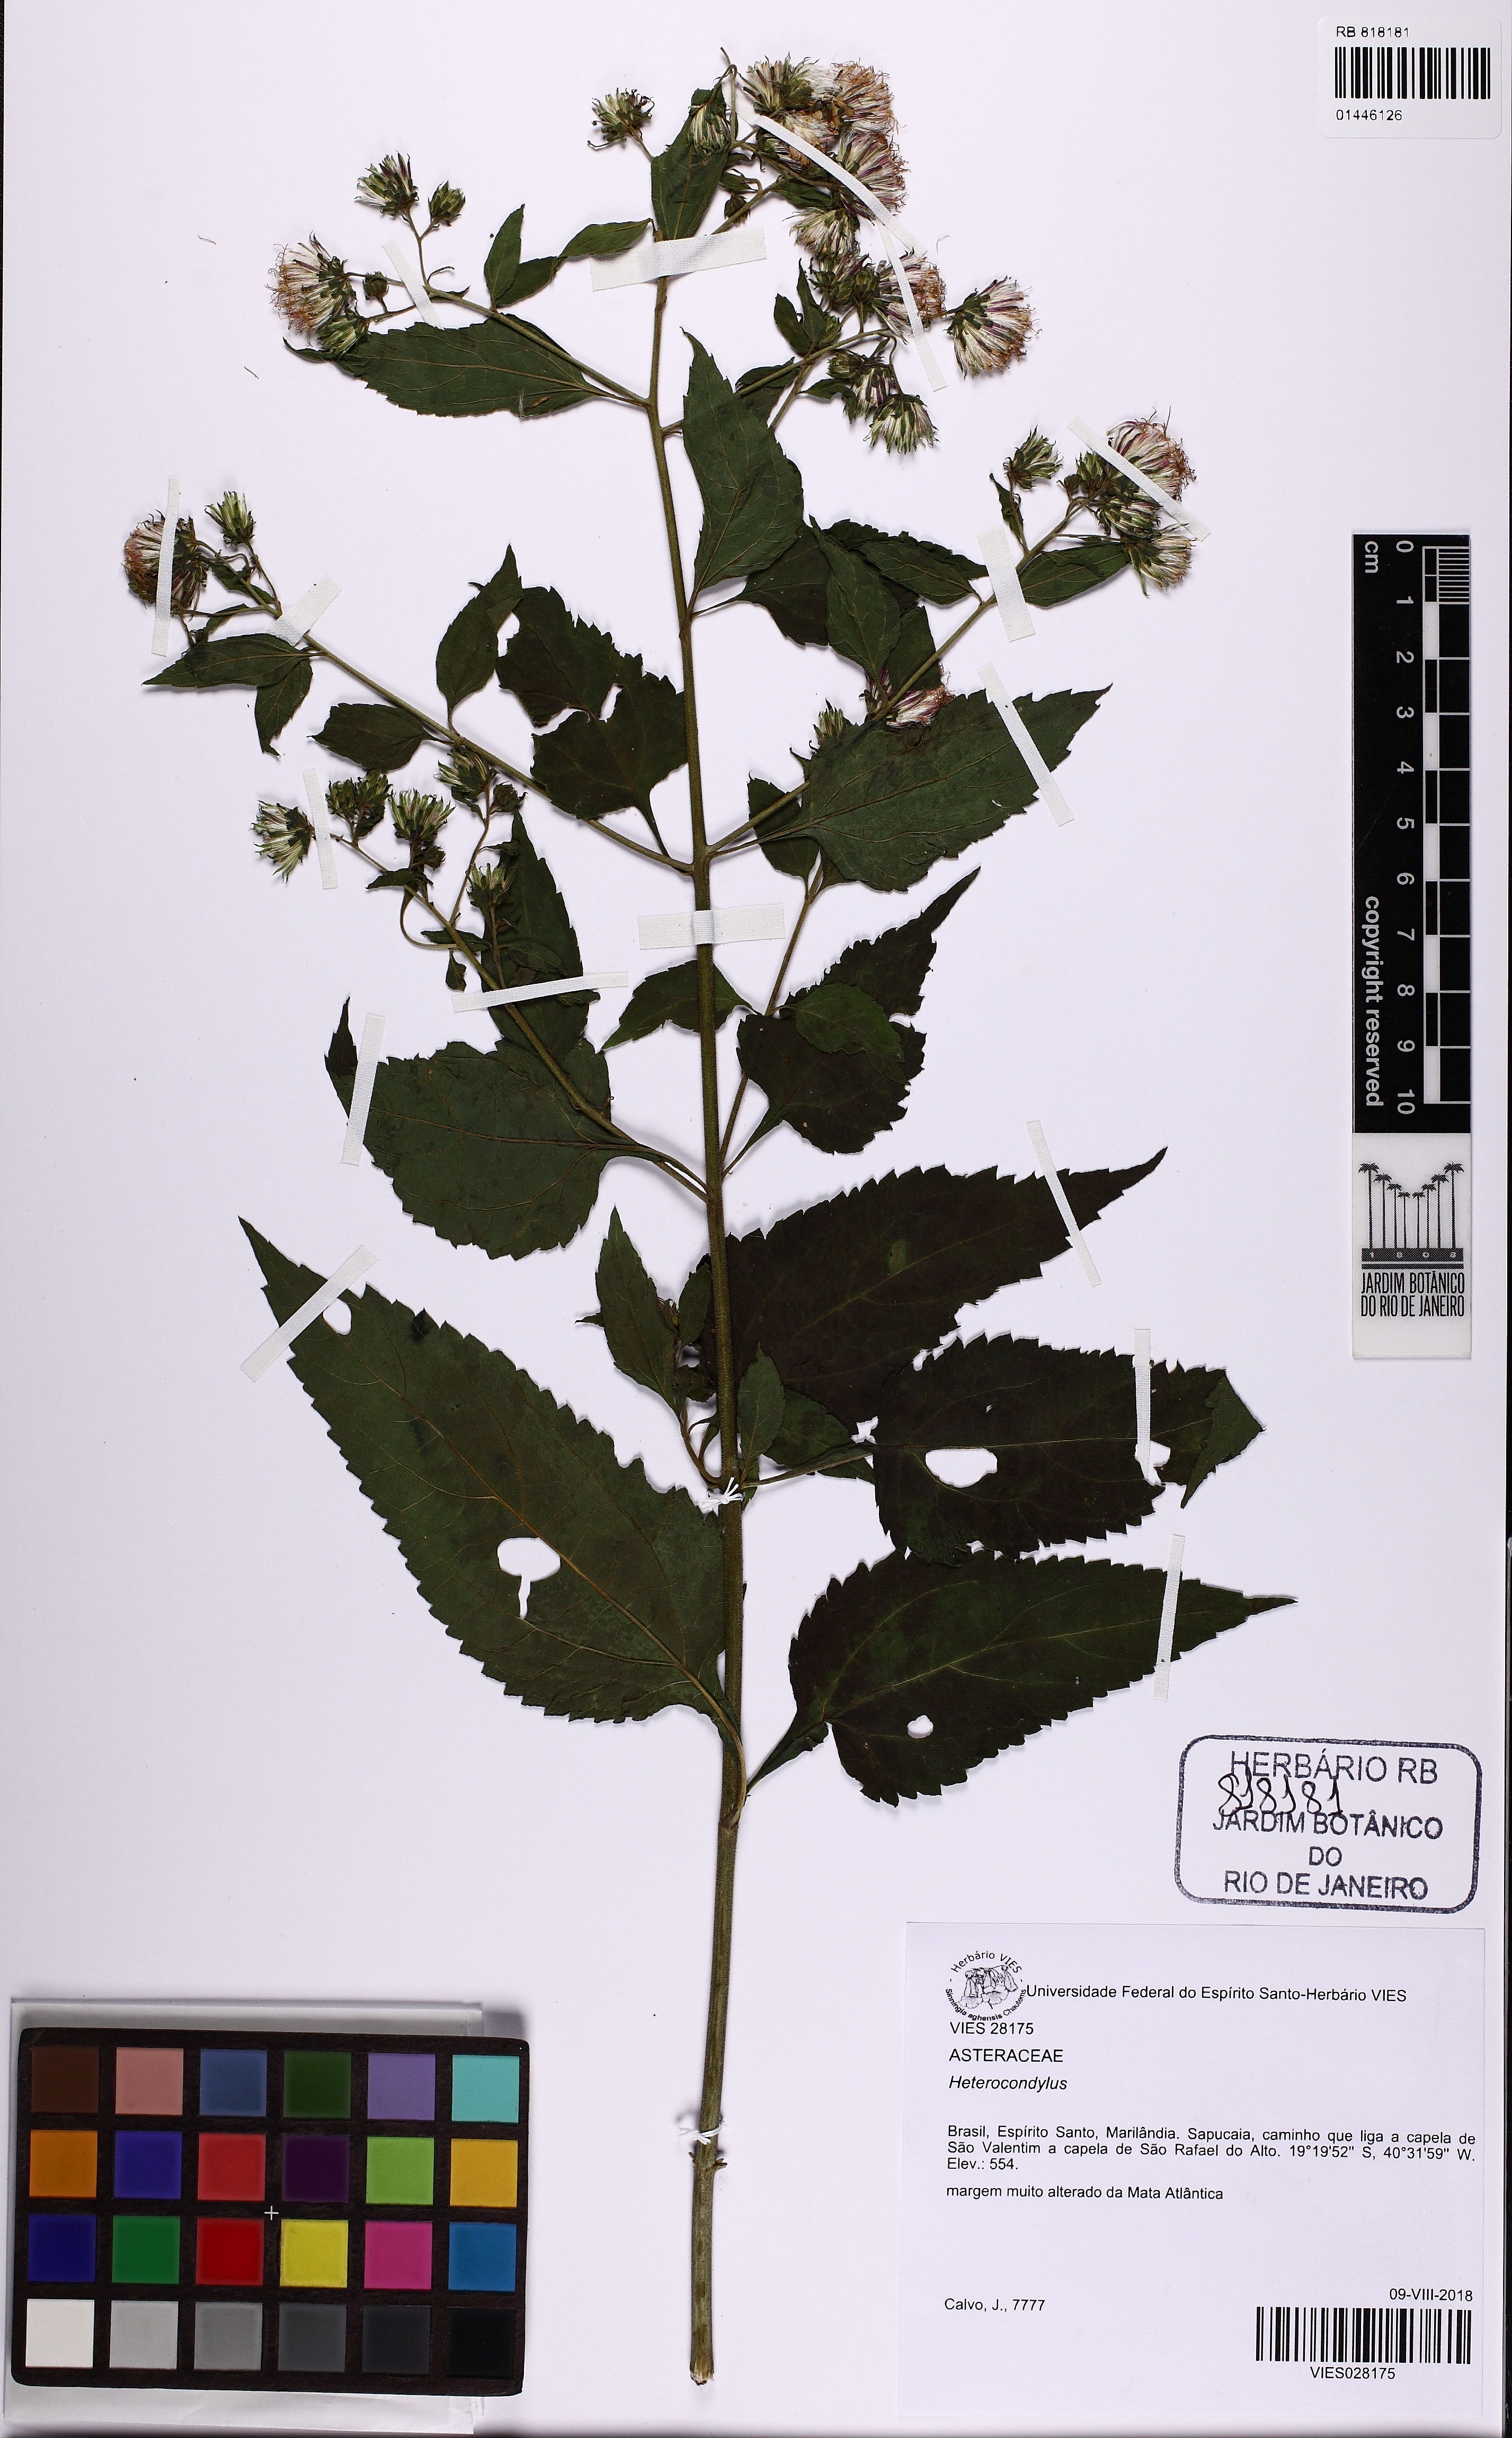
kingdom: Plantae
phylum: Tracheophyta
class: Magnoliopsida
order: Asterales
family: Asteraceae
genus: Heterocondylus
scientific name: Heterocondylus
